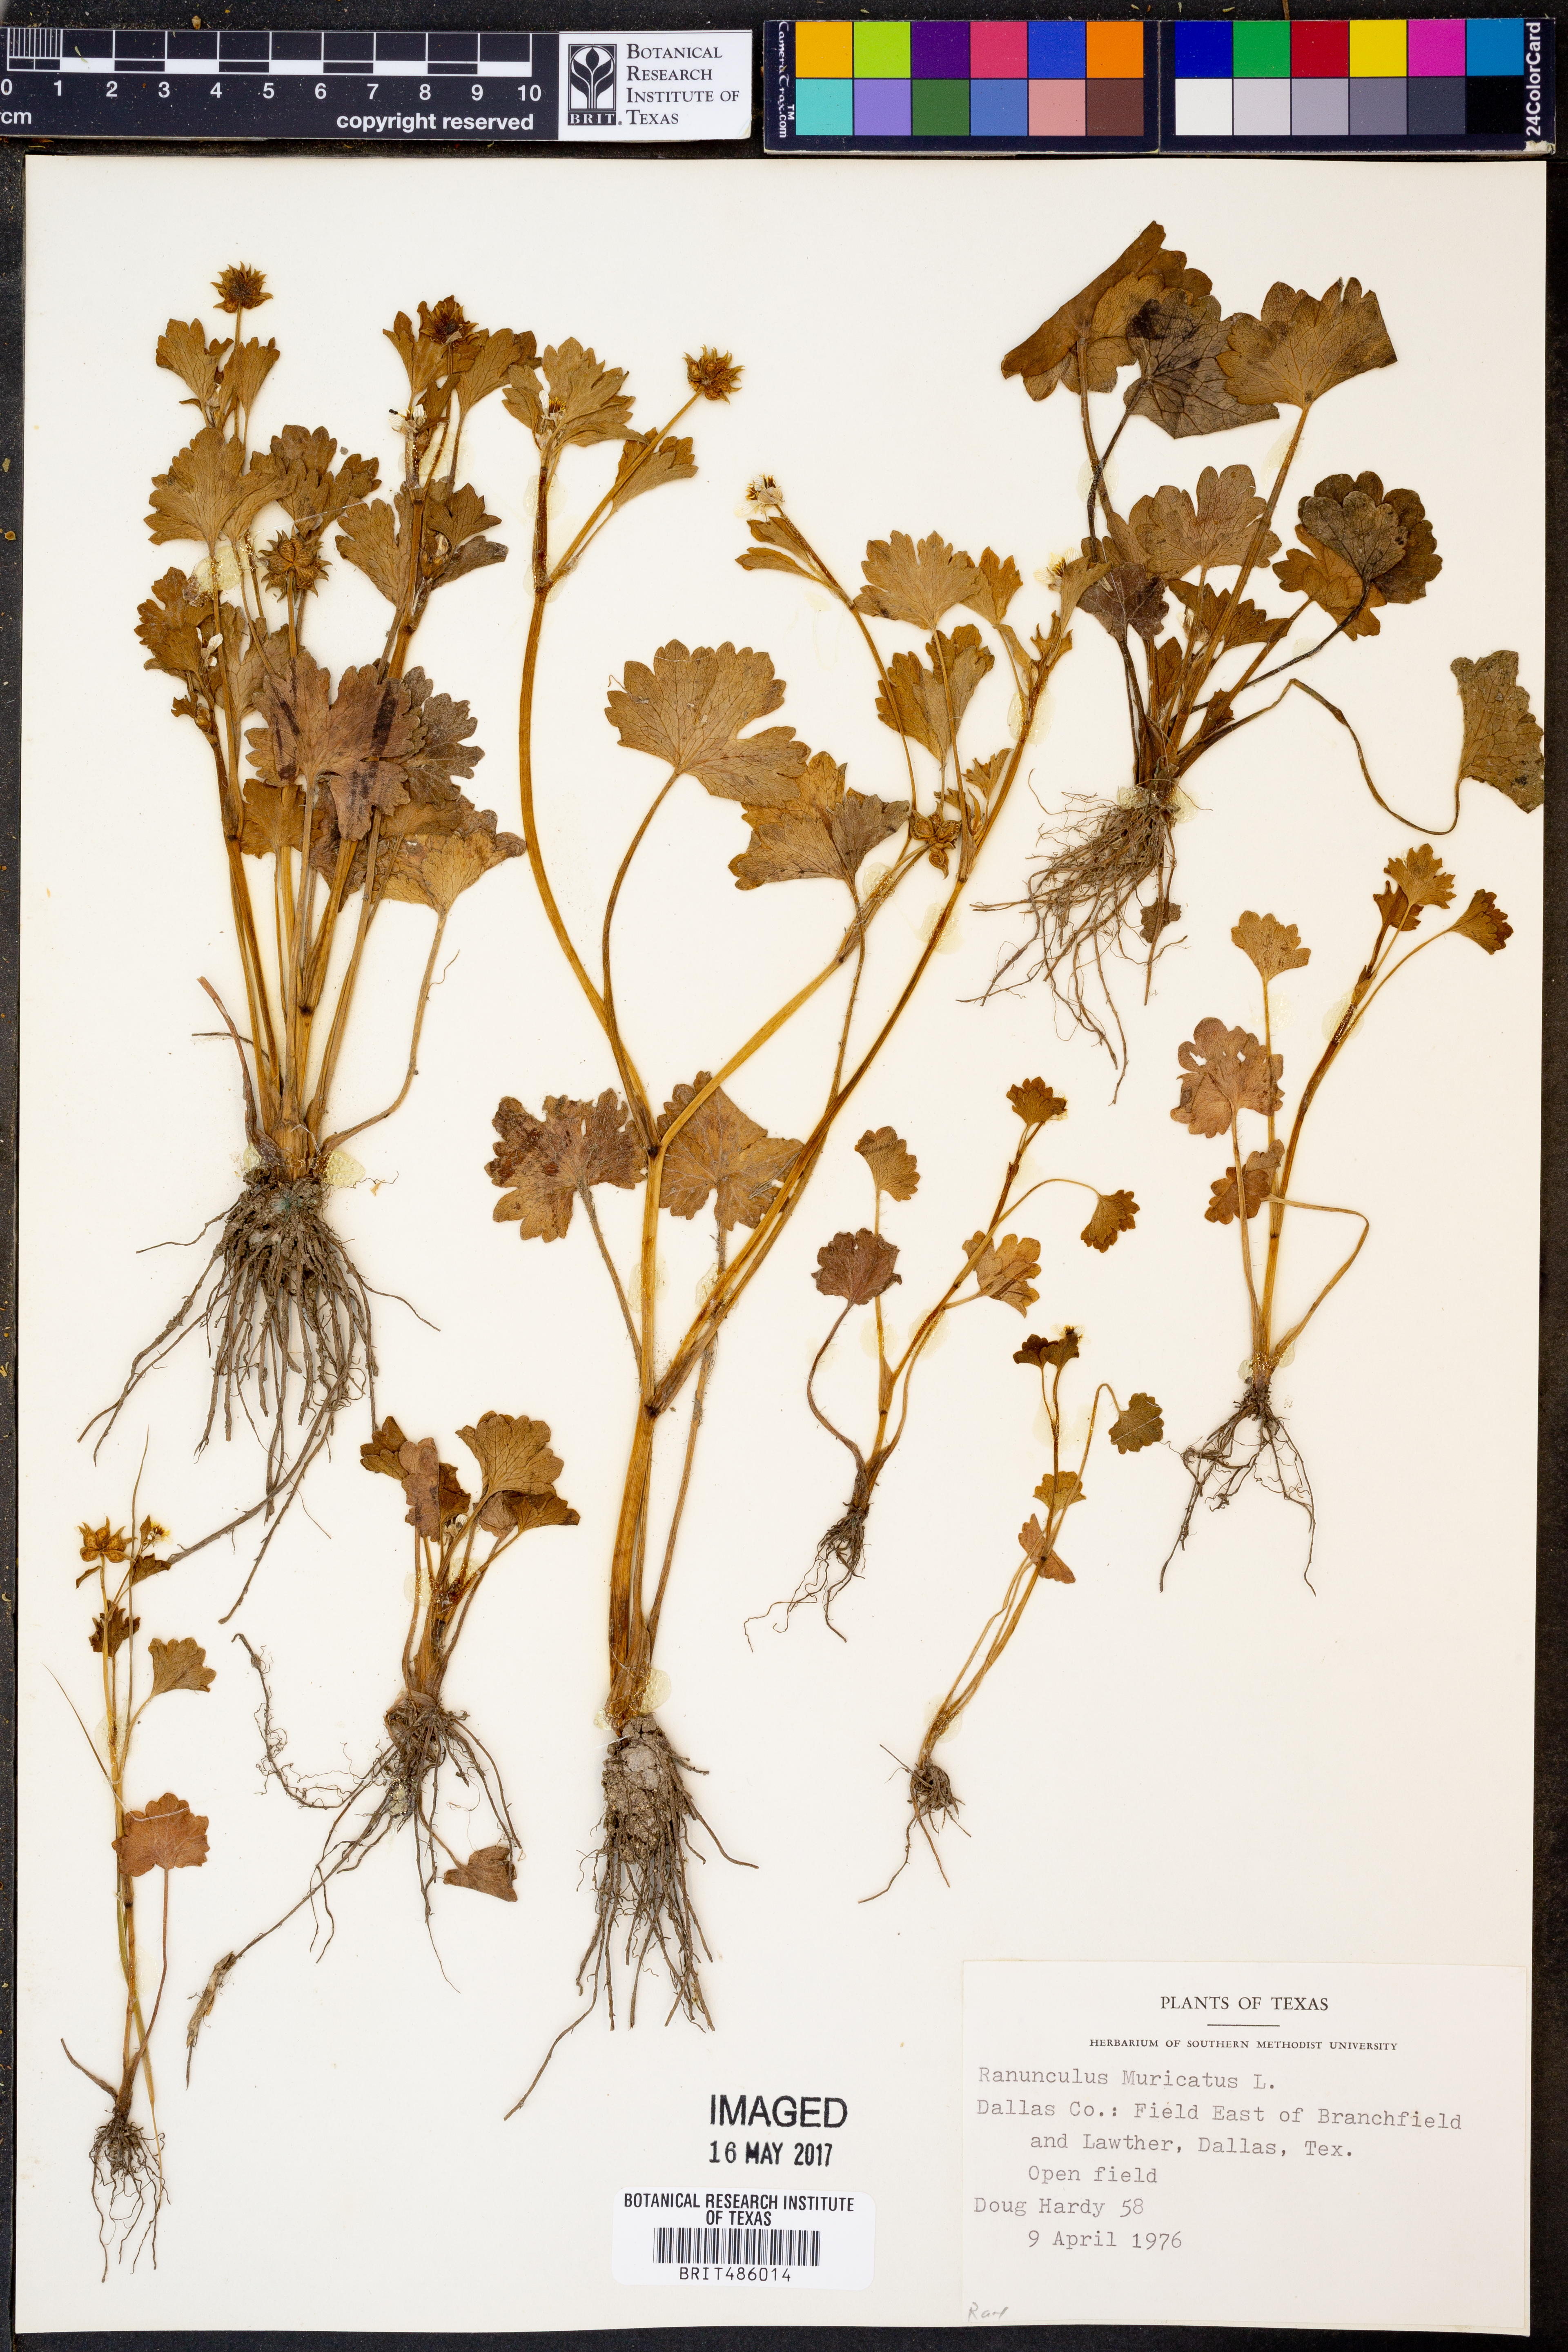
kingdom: Plantae
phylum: Tracheophyta
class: Magnoliopsida
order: Ranunculales
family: Ranunculaceae
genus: Ranunculus
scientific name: Ranunculus muricatus
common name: Rough-fruited buttercup
